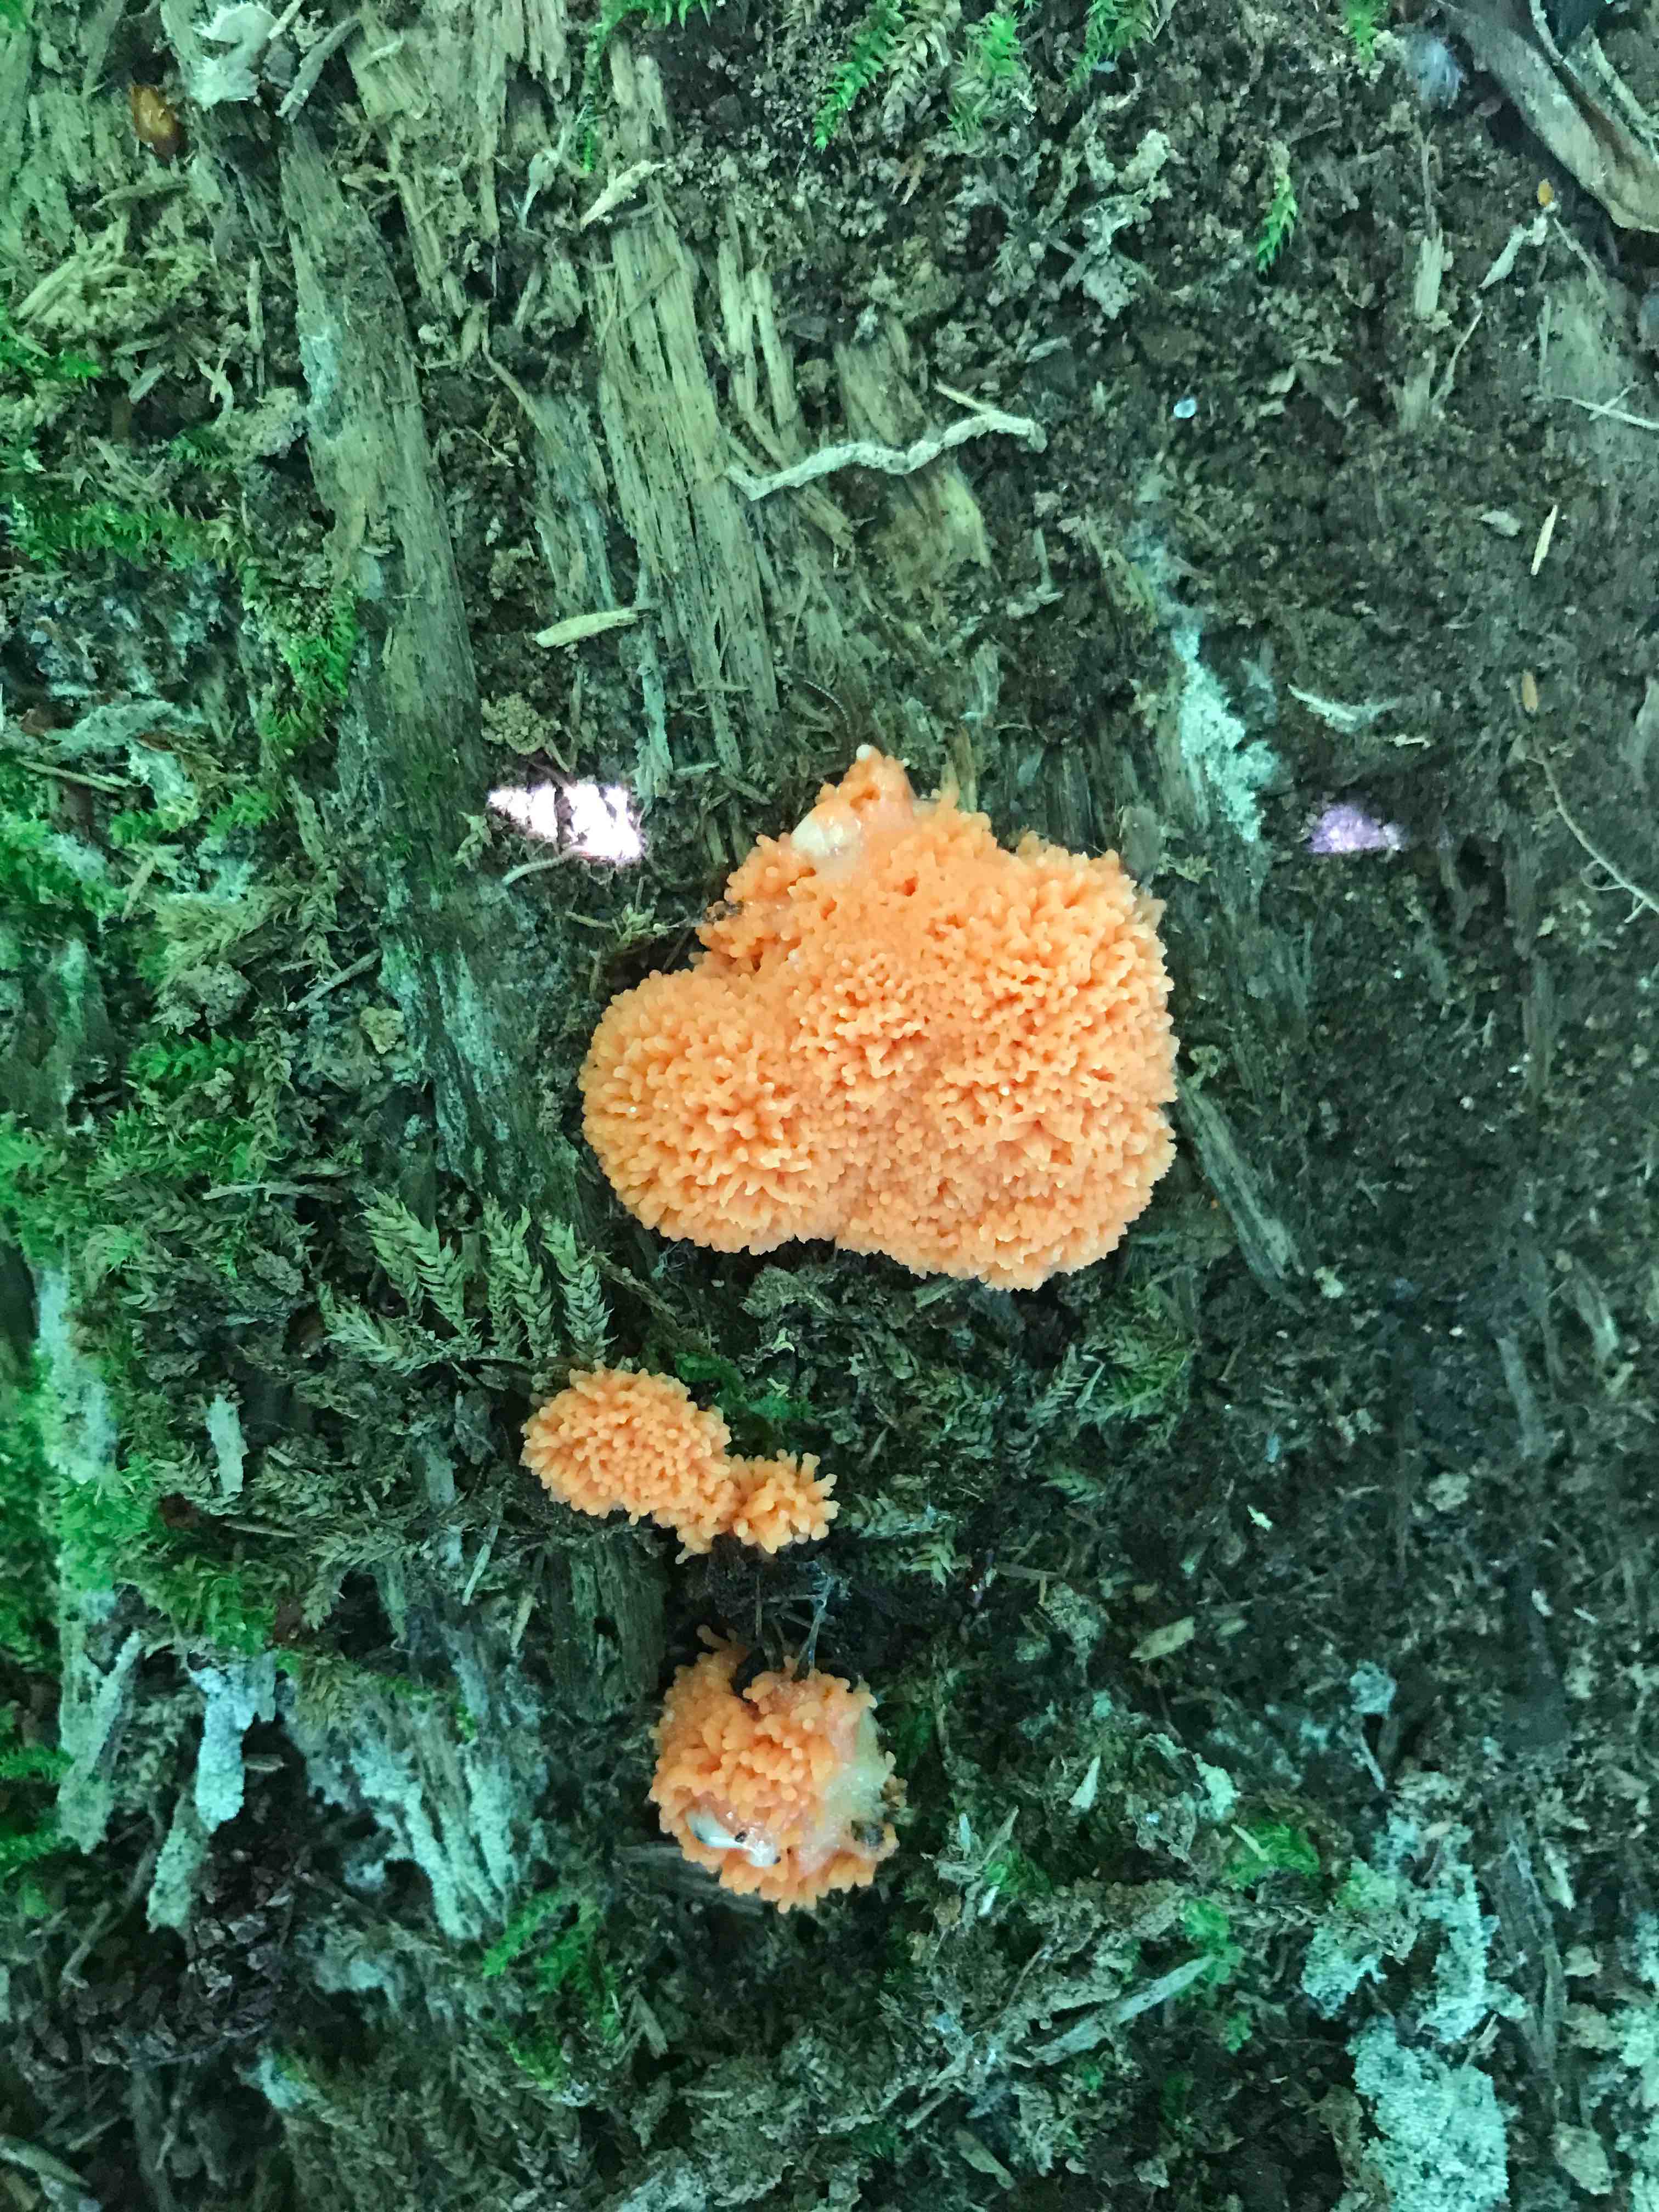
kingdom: Protozoa
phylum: Mycetozoa
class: Myxomycetes
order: Cribrariales
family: Tubiferaceae
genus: Tubifera
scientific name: Tubifera ferruginosa
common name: kanel-støvrør
